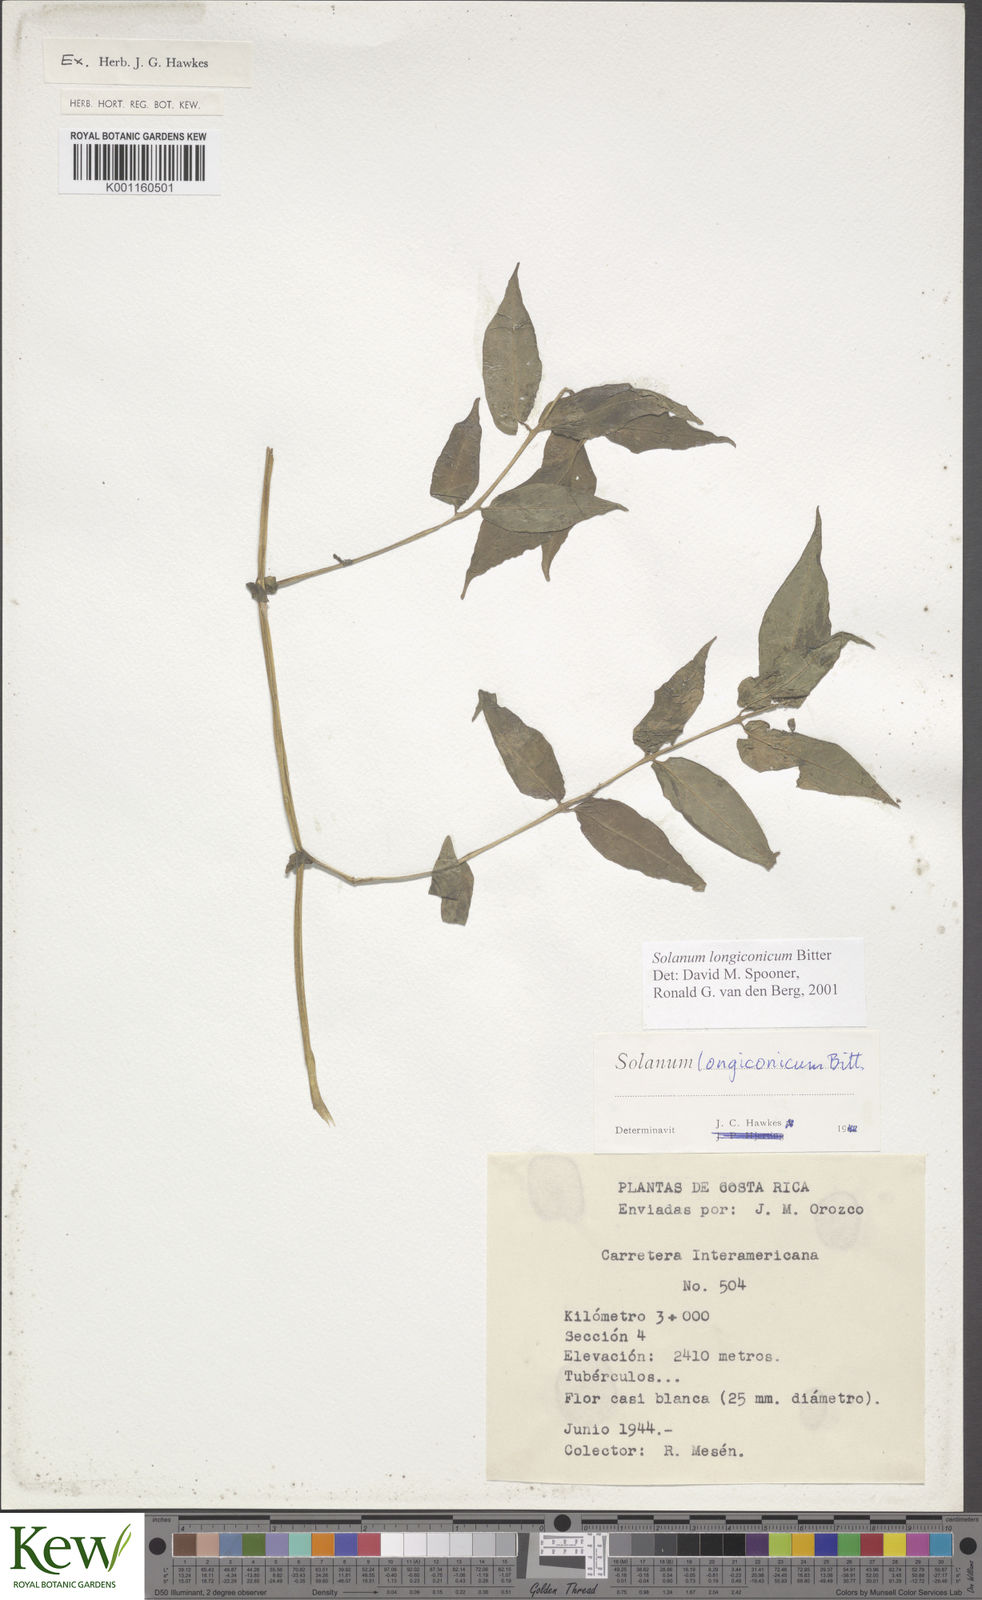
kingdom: Plantae
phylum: Tracheophyta
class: Magnoliopsida
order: Solanales
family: Solanaceae
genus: Solanum
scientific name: Solanum longiconicum
